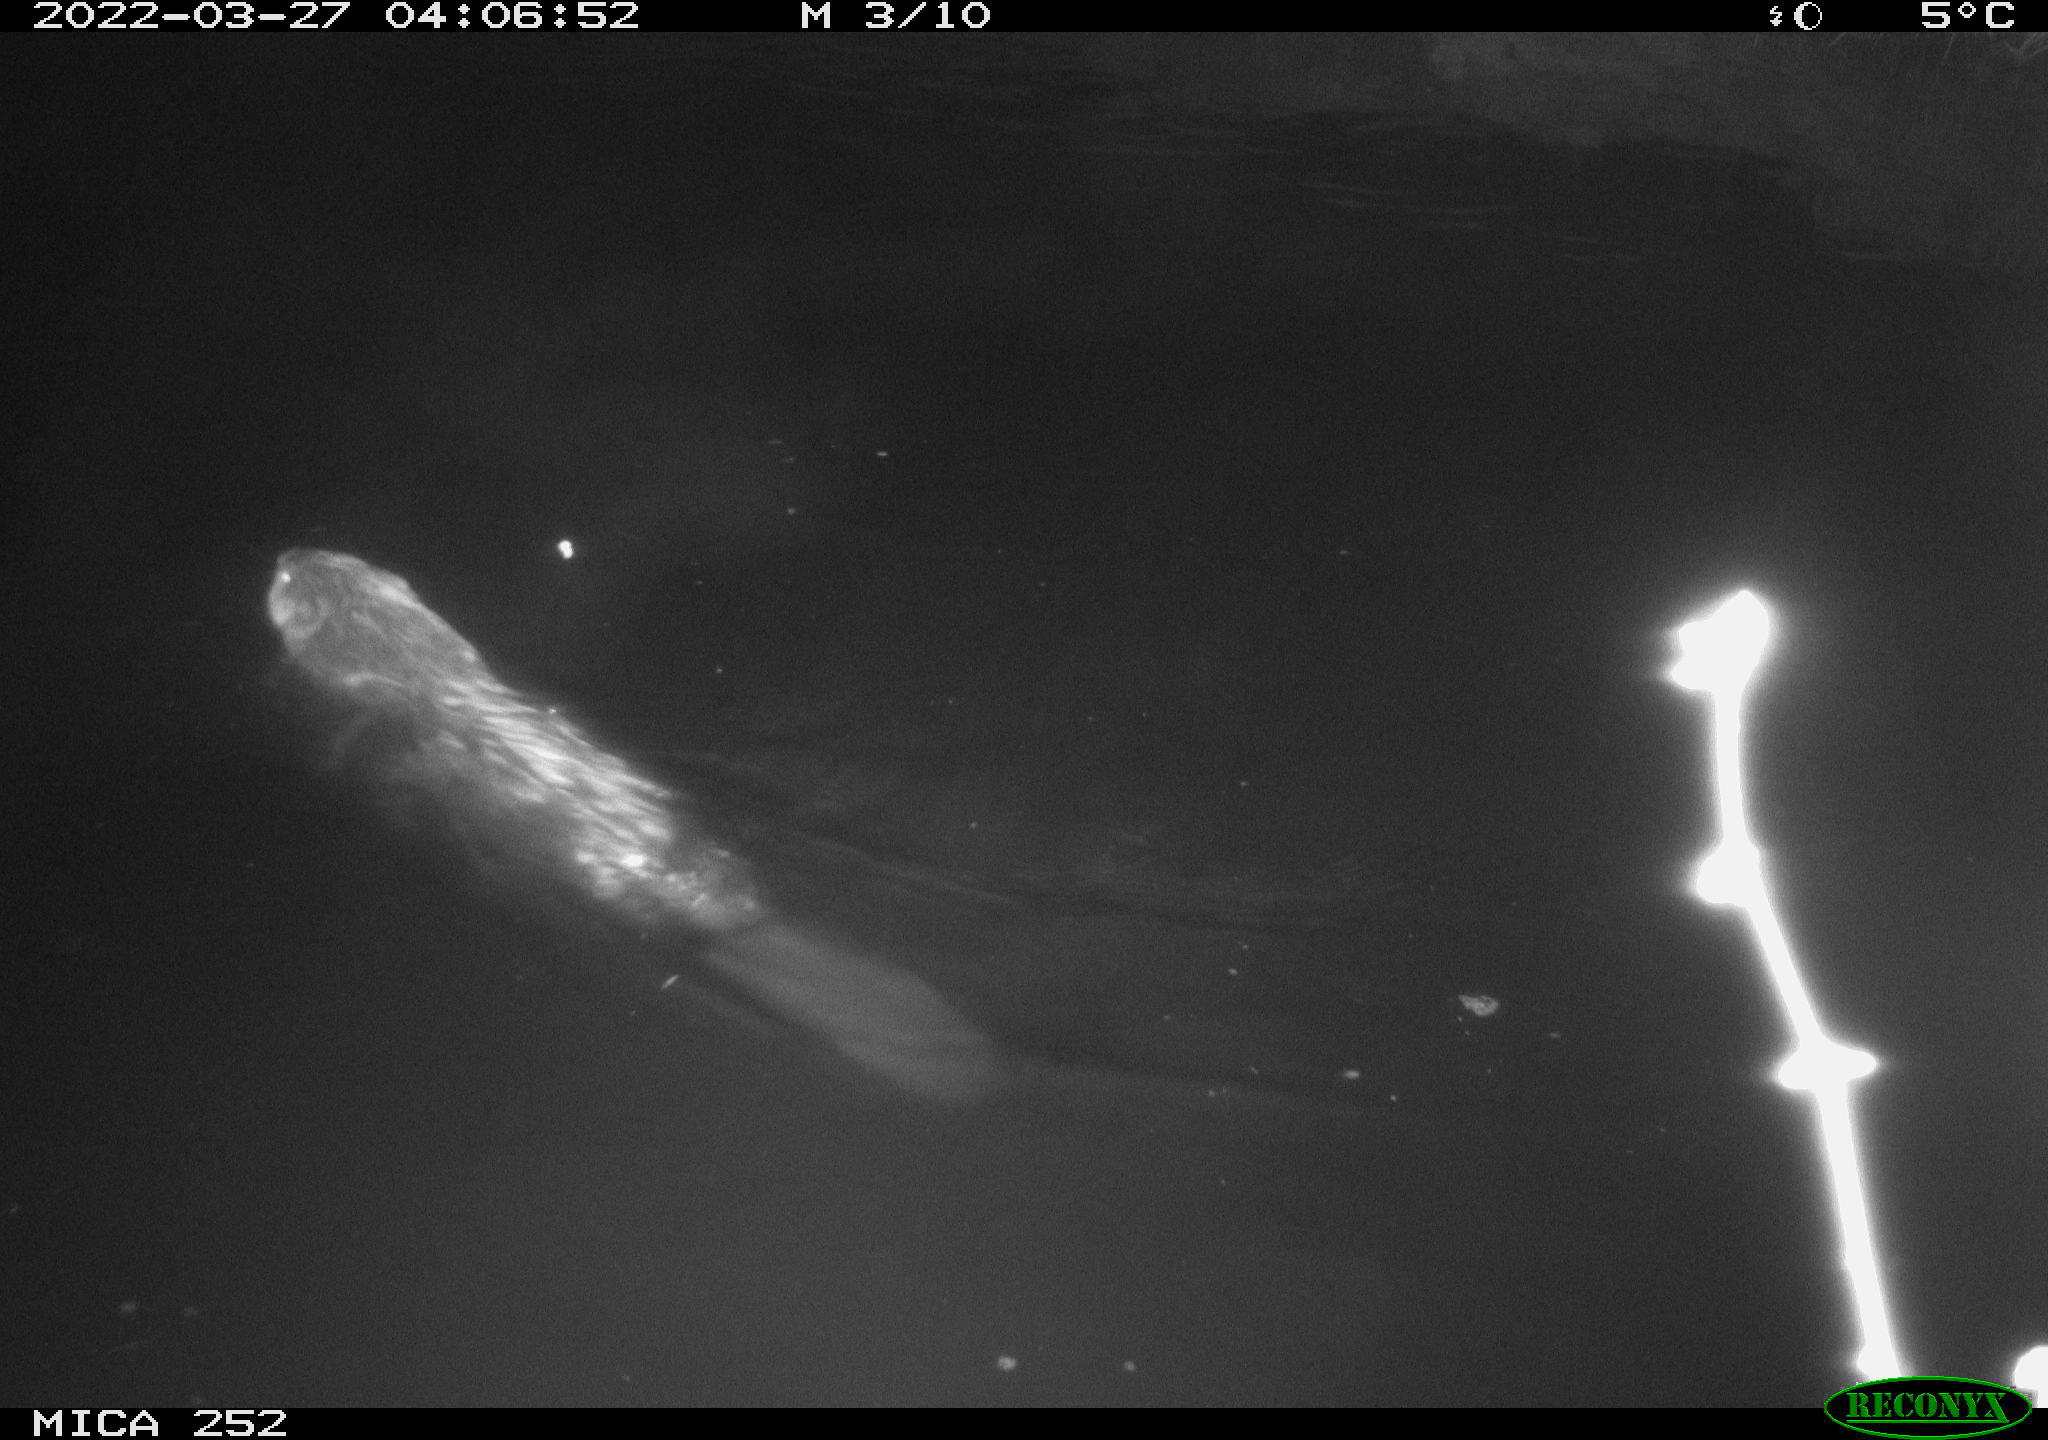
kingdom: Animalia
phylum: Chordata
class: Mammalia
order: Rodentia
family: Castoridae
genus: Castor
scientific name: Castor fiber
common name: Eurasian beaver
